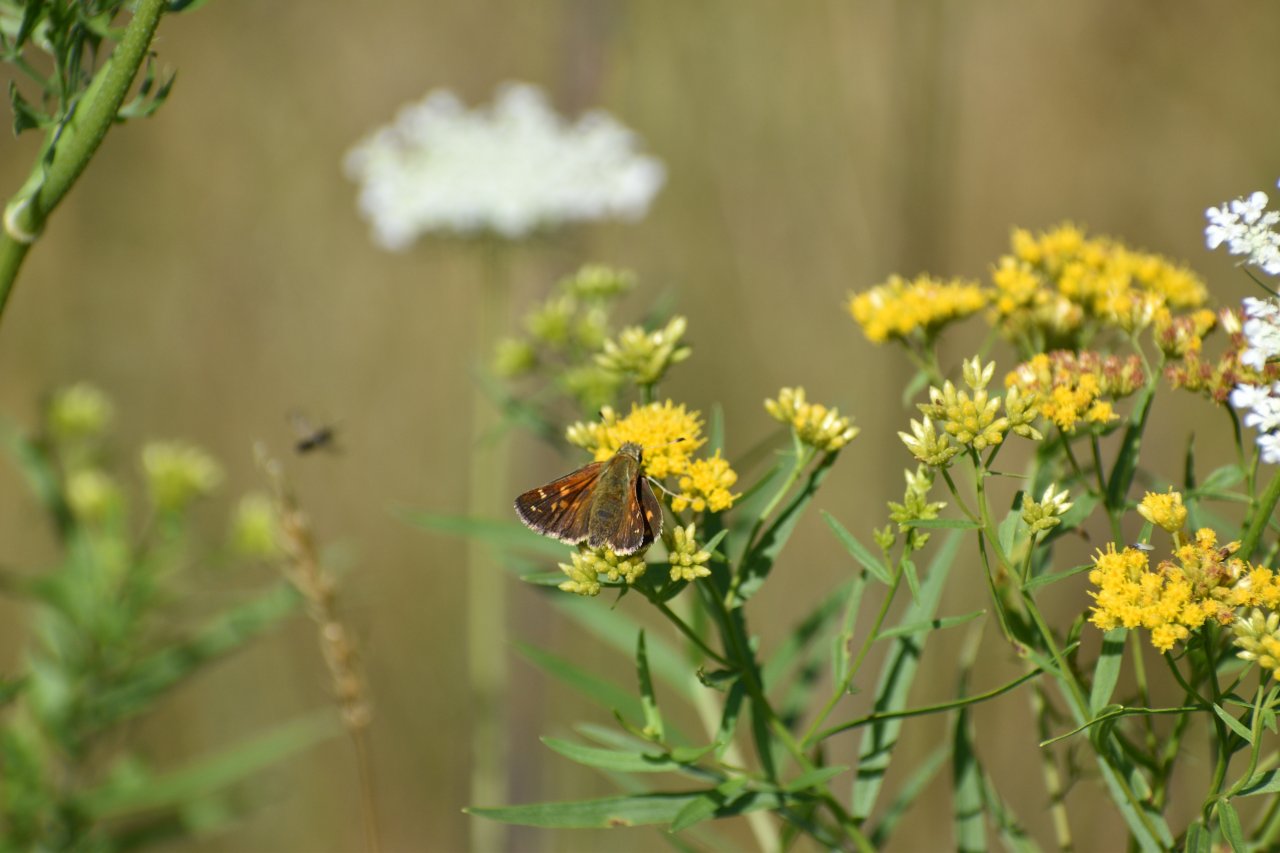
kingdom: Animalia
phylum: Arthropoda
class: Insecta
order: Lepidoptera
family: Hesperiidae
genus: Hesperia
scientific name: Hesperia comma
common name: Common Branded Skipper
